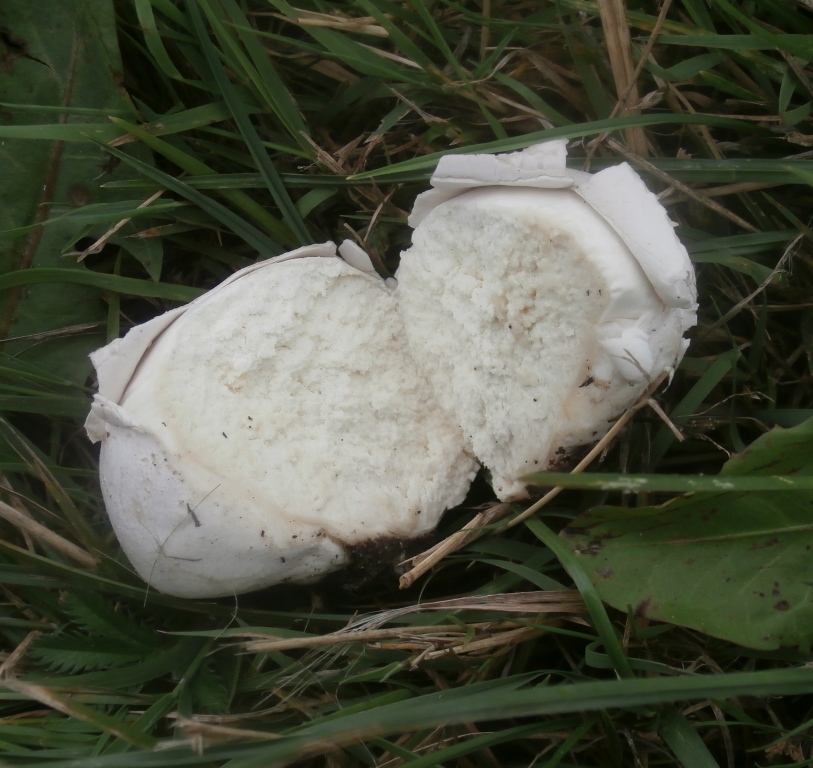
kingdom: Fungi
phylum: Basidiomycota
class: Agaricomycetes
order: Agaricales
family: Lycoperdaceae
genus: Bovista
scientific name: Bovista nigrescens
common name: sortagtig bovist
